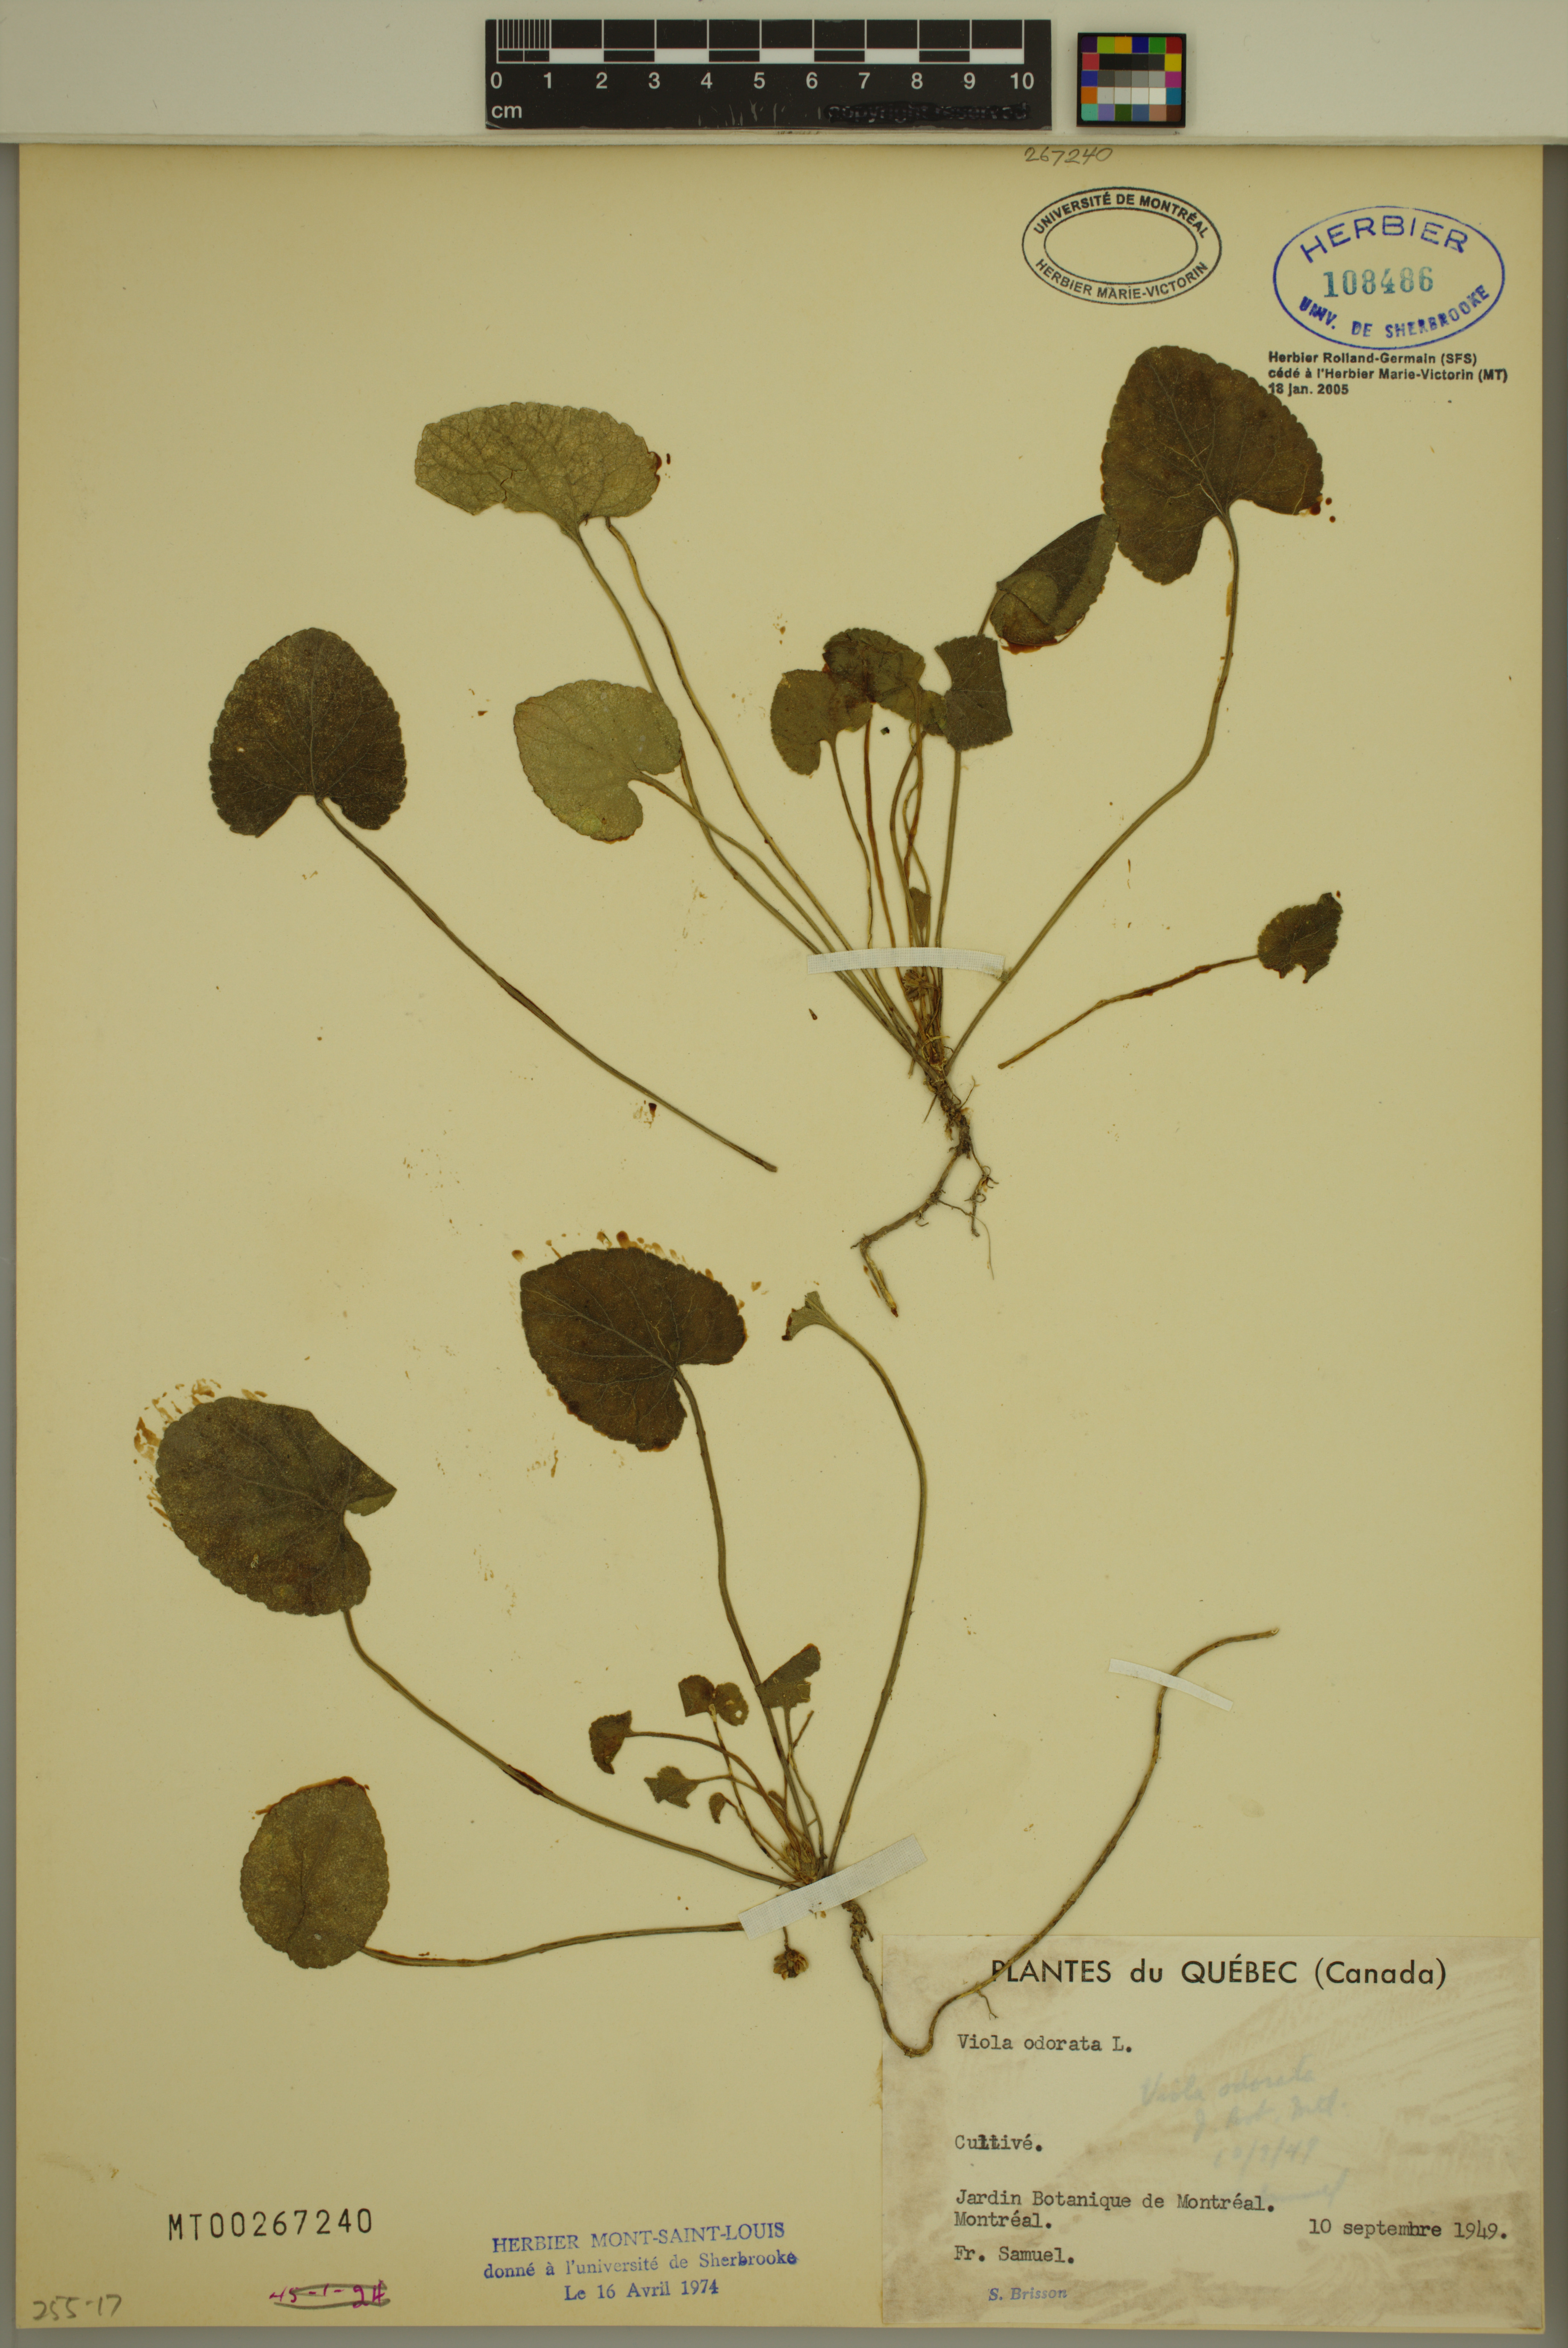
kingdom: Plantae
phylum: Tracheophyta
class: Magnoliopsida
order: Malpighiales
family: Violaceae
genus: Viola
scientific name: Viola odorata
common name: Sweet violet
